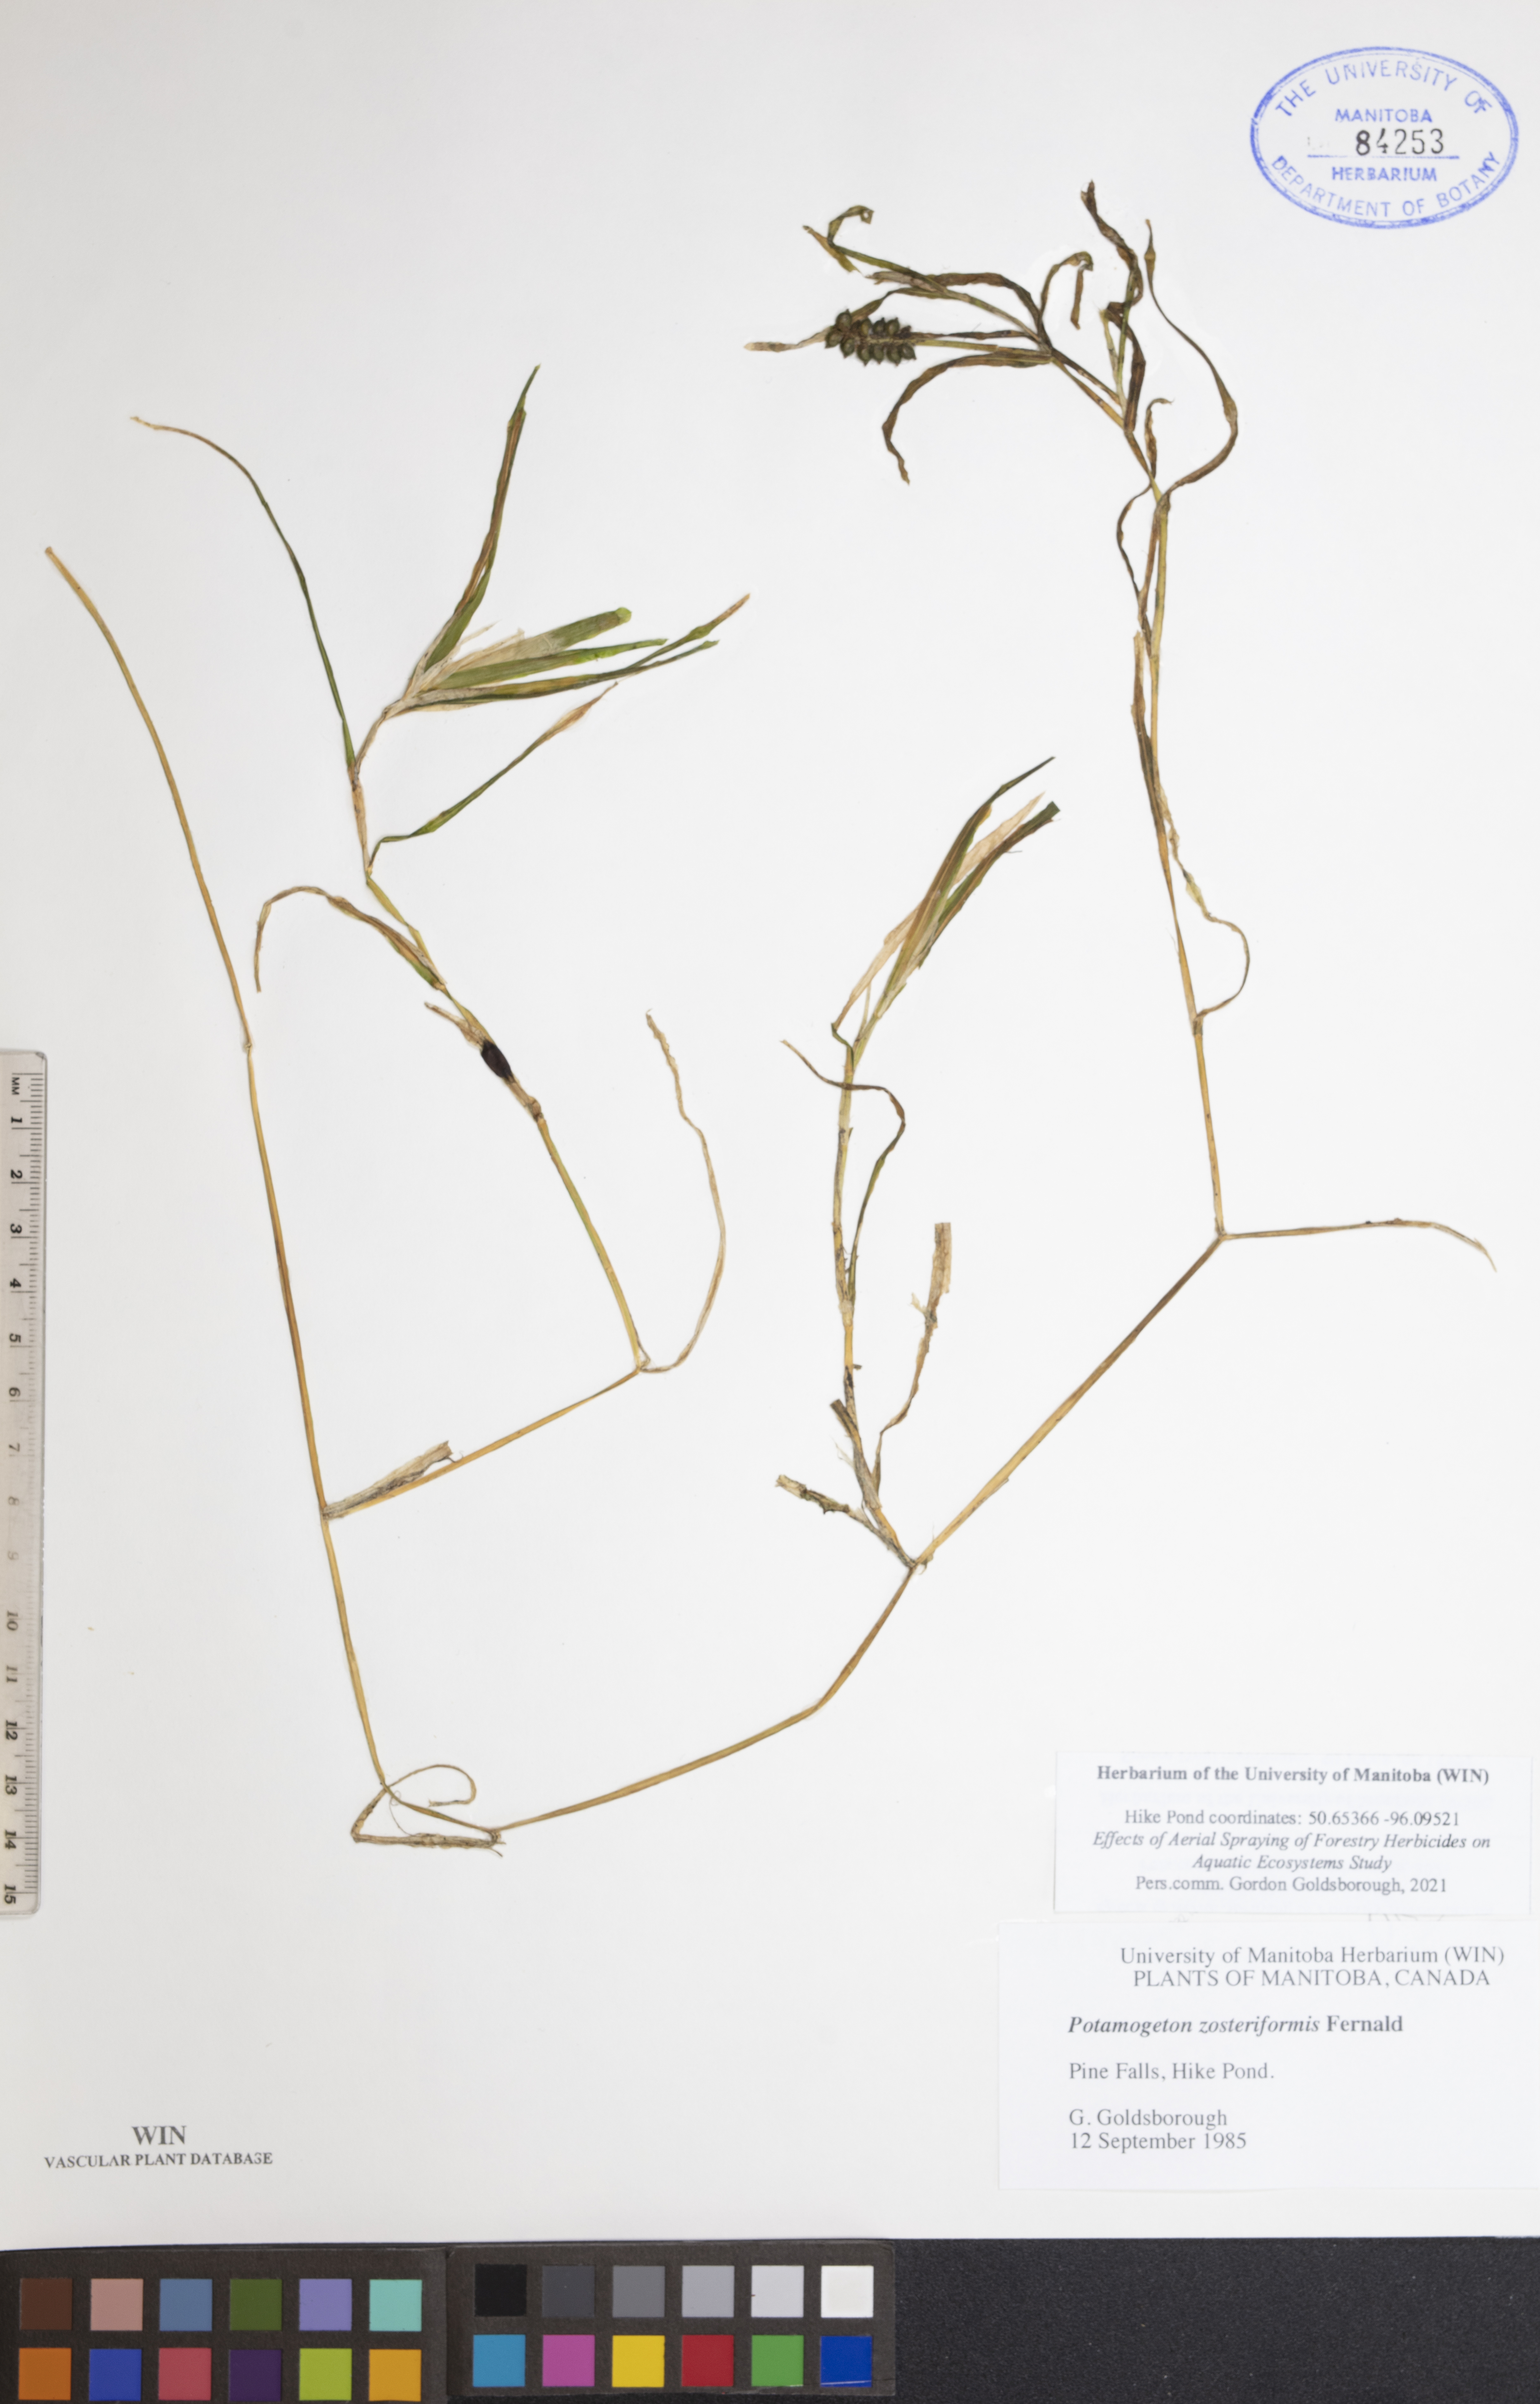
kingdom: Plantae
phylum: Tracheophyta
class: Liliopsida
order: Alismatales
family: Potamogetonaceae
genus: Potamogeton
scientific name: Potamogeton zosteriformis
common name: Eelgrass pondweed
